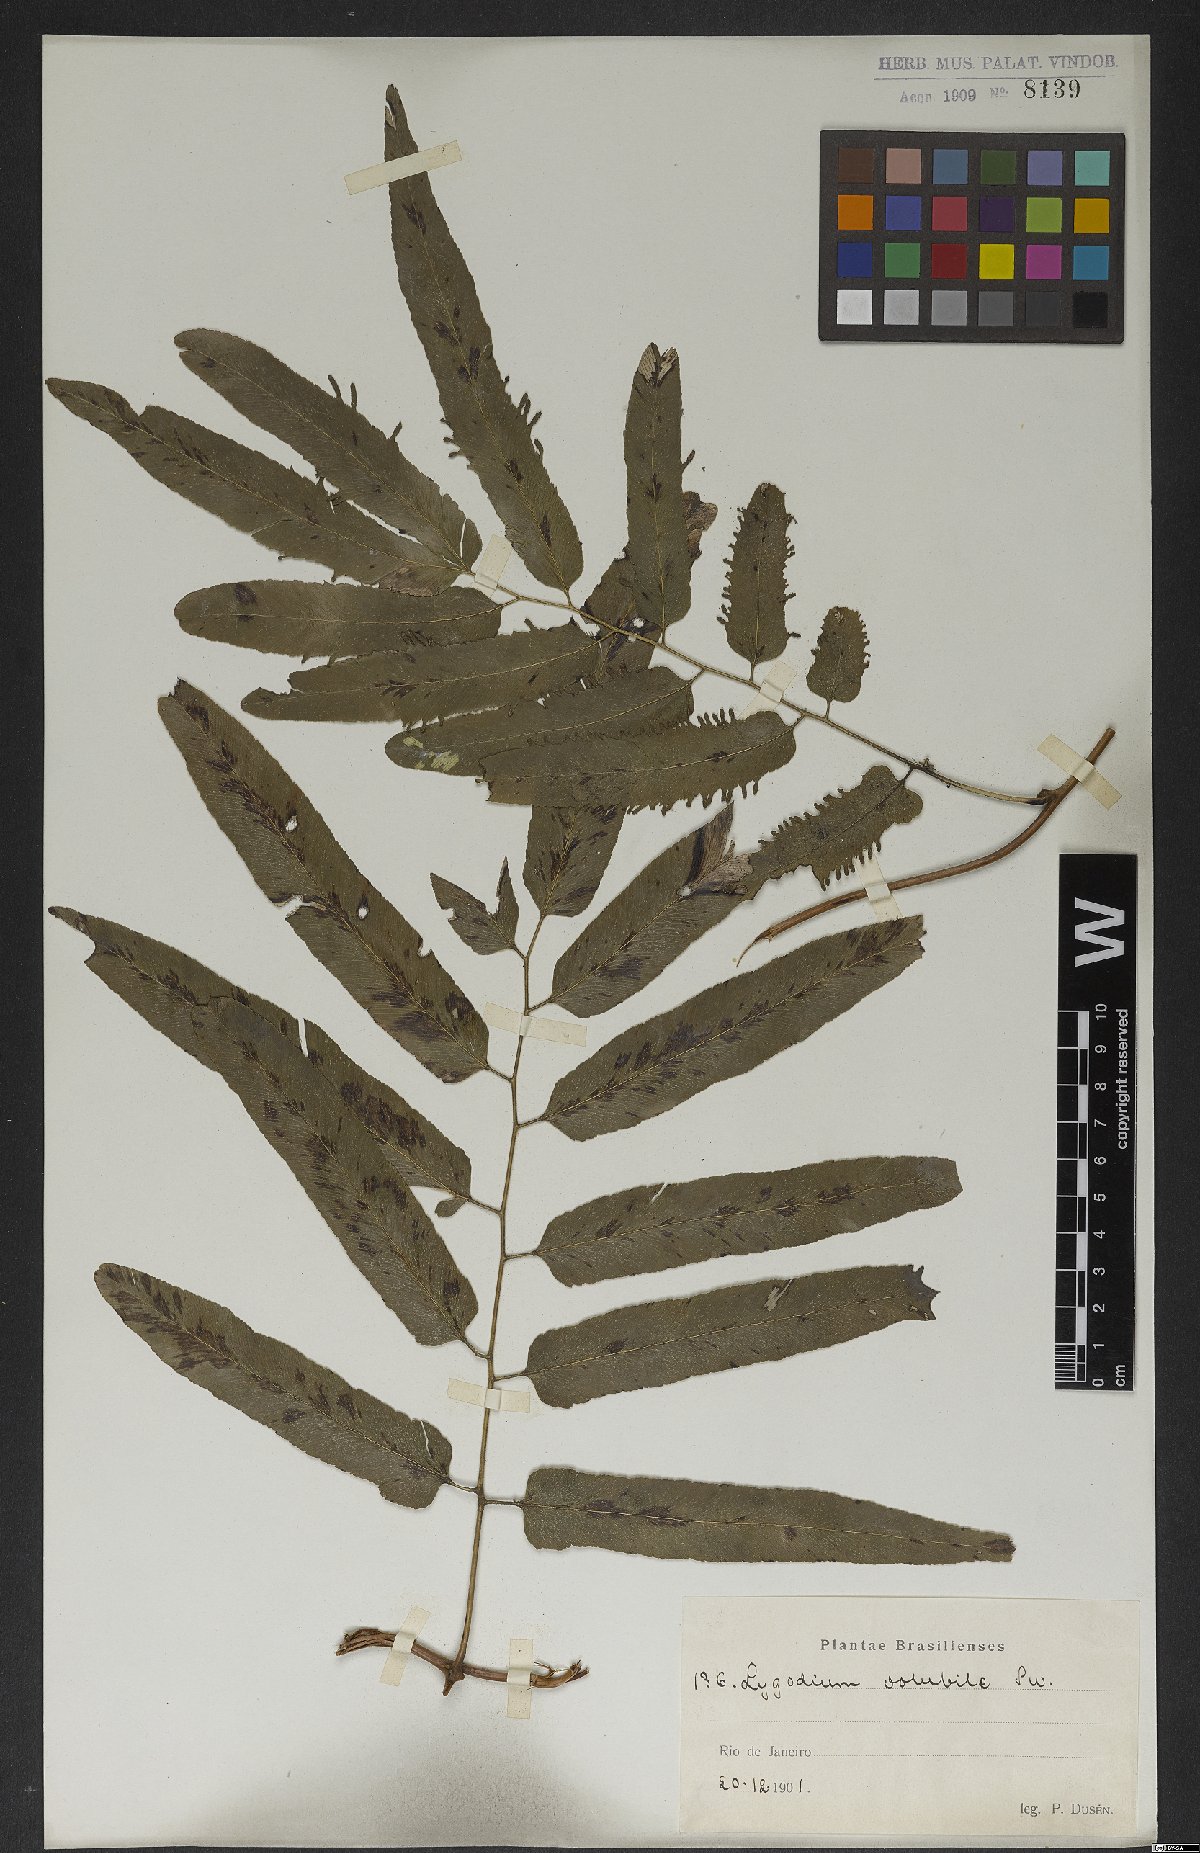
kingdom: Plantae
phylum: Tracheophyta
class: Polypodiopsida
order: Schizaeales
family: Lygodiaceae
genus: Lygodium
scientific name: Lygodium volubile
